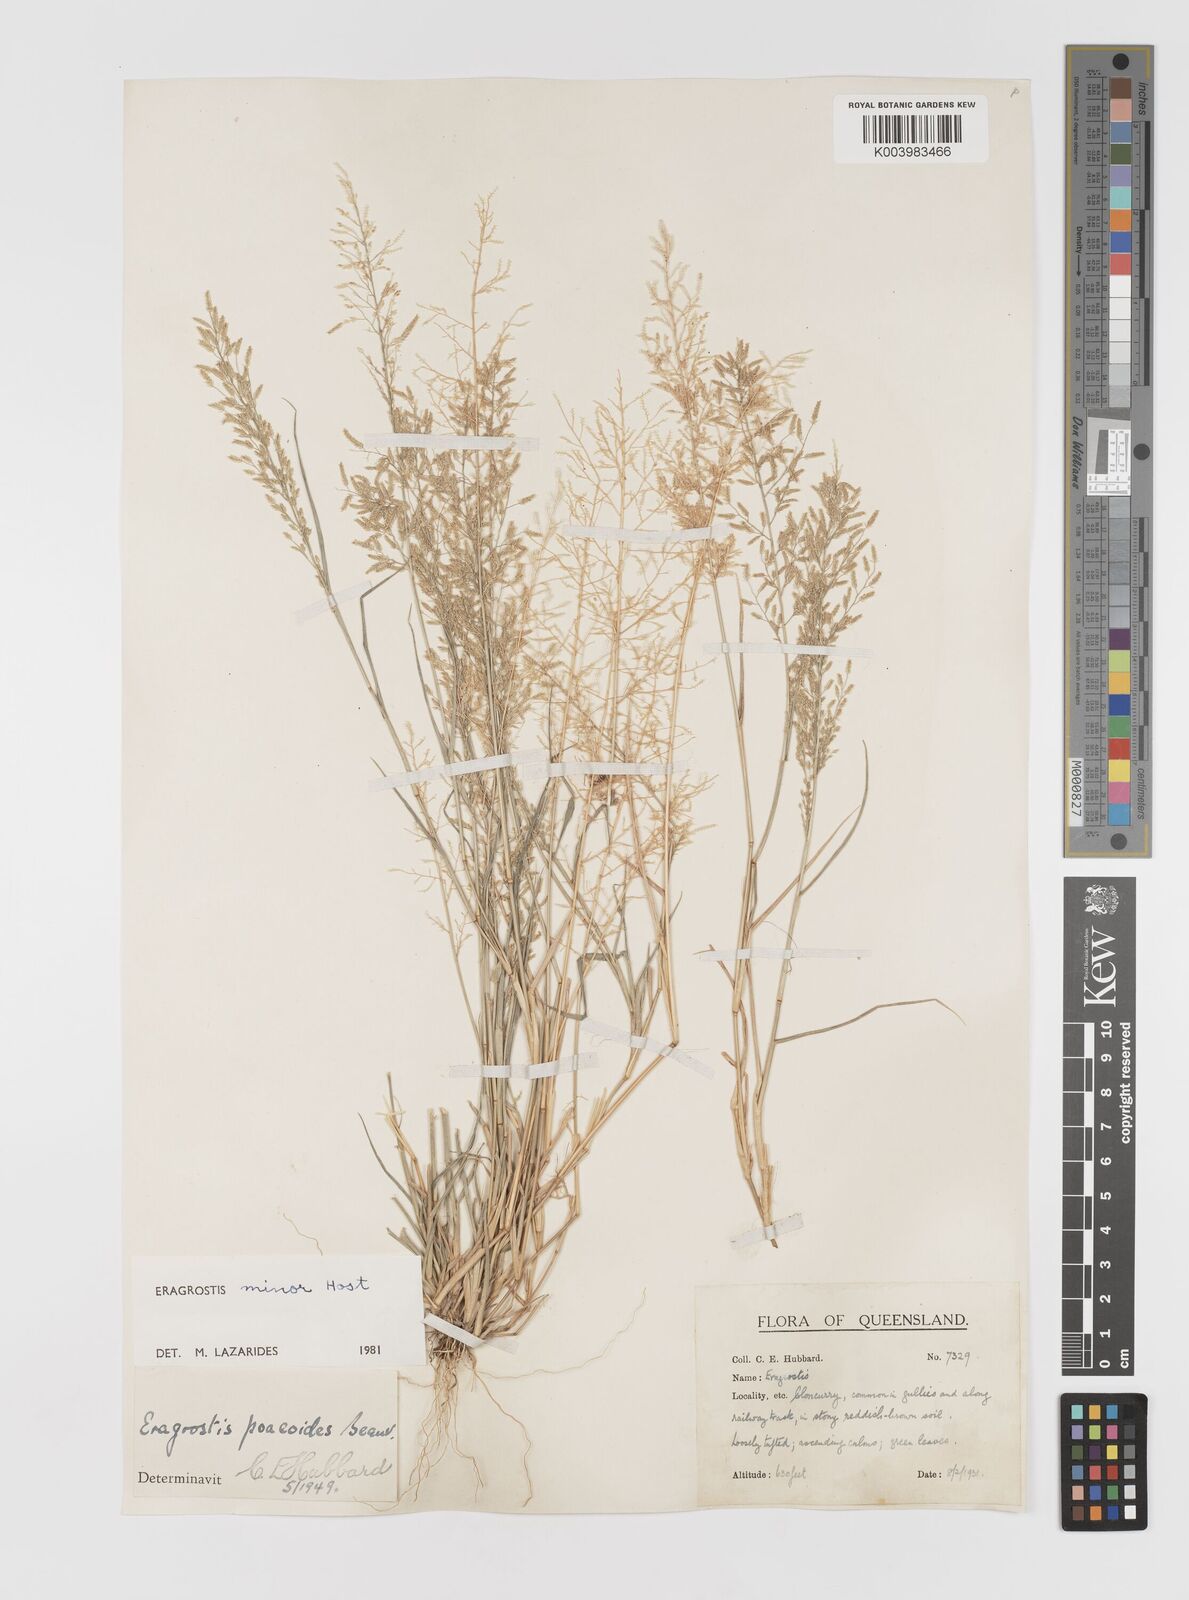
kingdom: Plantae
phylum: Tracheophyta
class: Liliopsida
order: Poales
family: Poaceae
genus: Eragrostis
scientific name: Eragrostis minor
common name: Small love-grass
